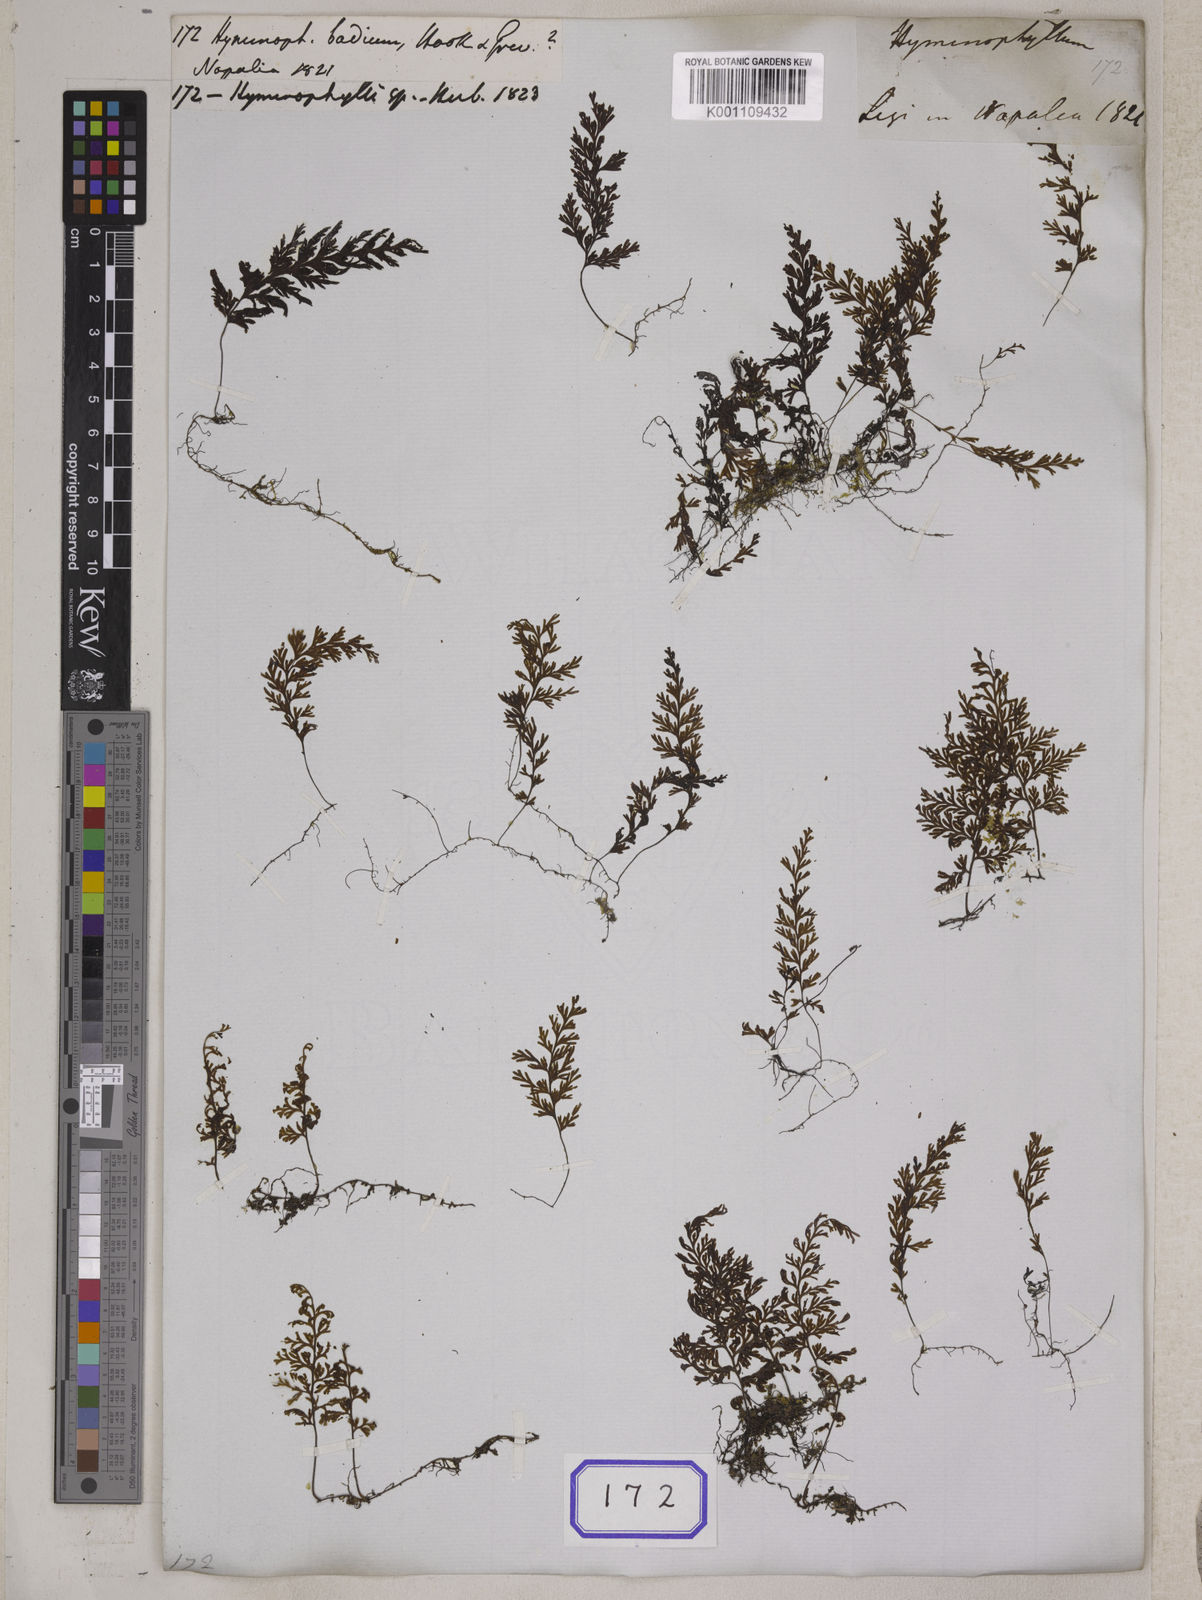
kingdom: Plantae
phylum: Tracheophyta
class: Polypodiopsida
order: Hymenophyllales
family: Hymenophyllaceae
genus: Hymenophyllum
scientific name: Hymenophyllum badium
